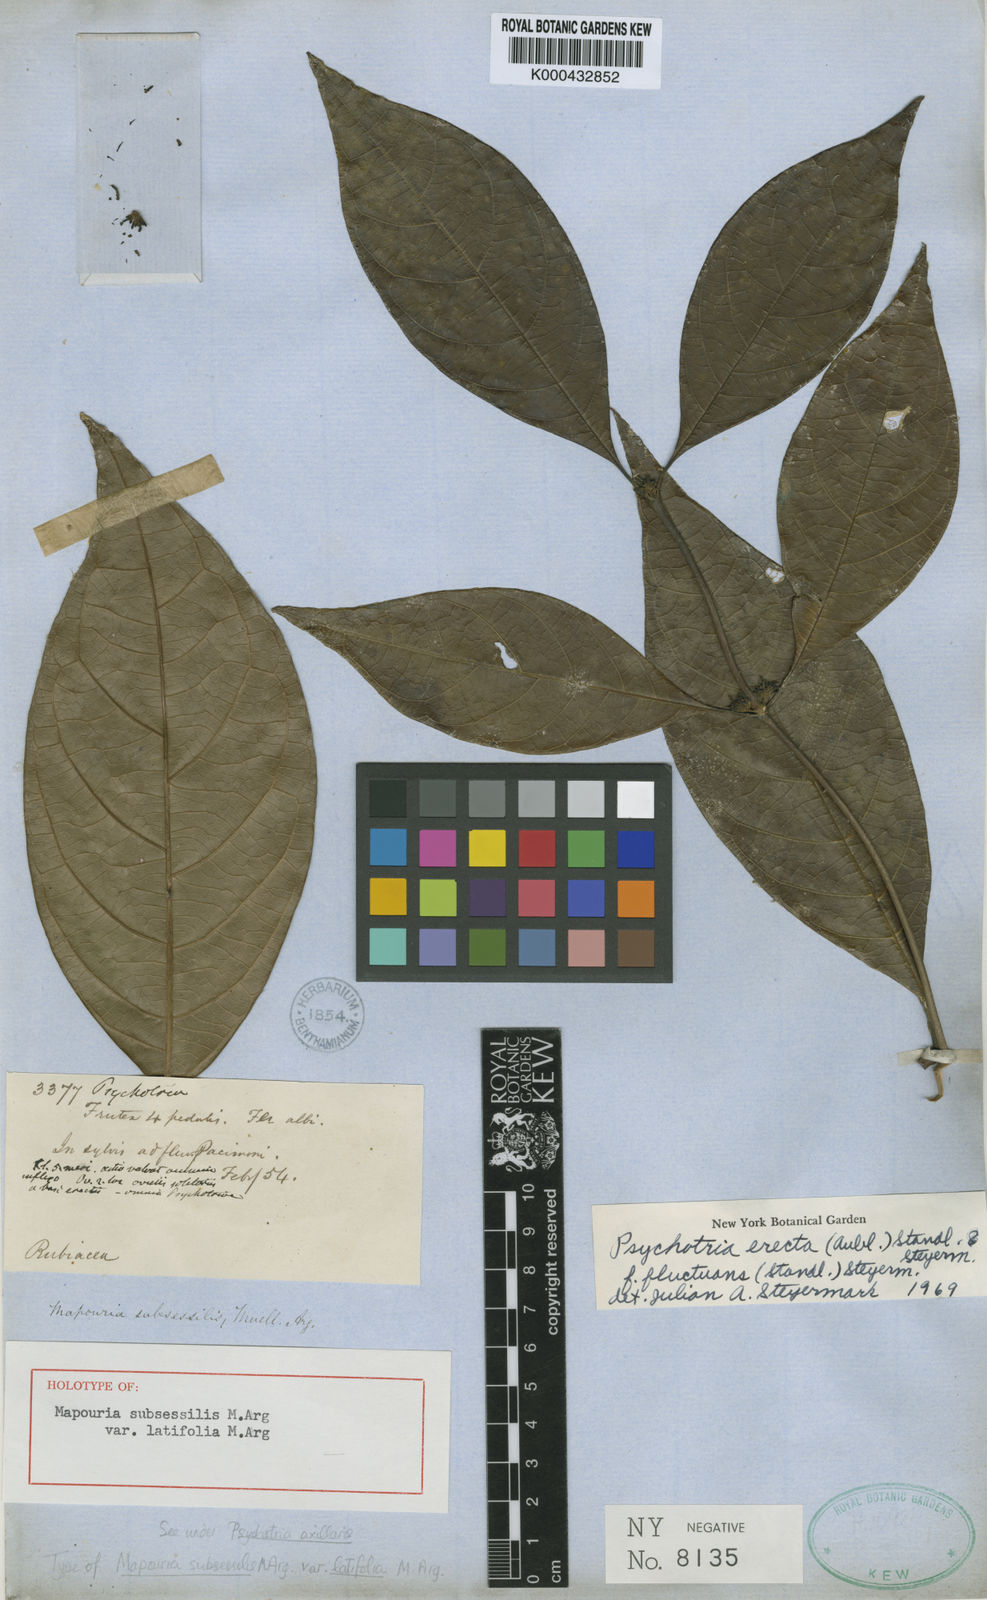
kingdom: Plantae
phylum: Tracheophyta
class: Magnoliopsida
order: Gentianales
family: Rubiaceae
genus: Ronabea
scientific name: Ronabea latifolia
